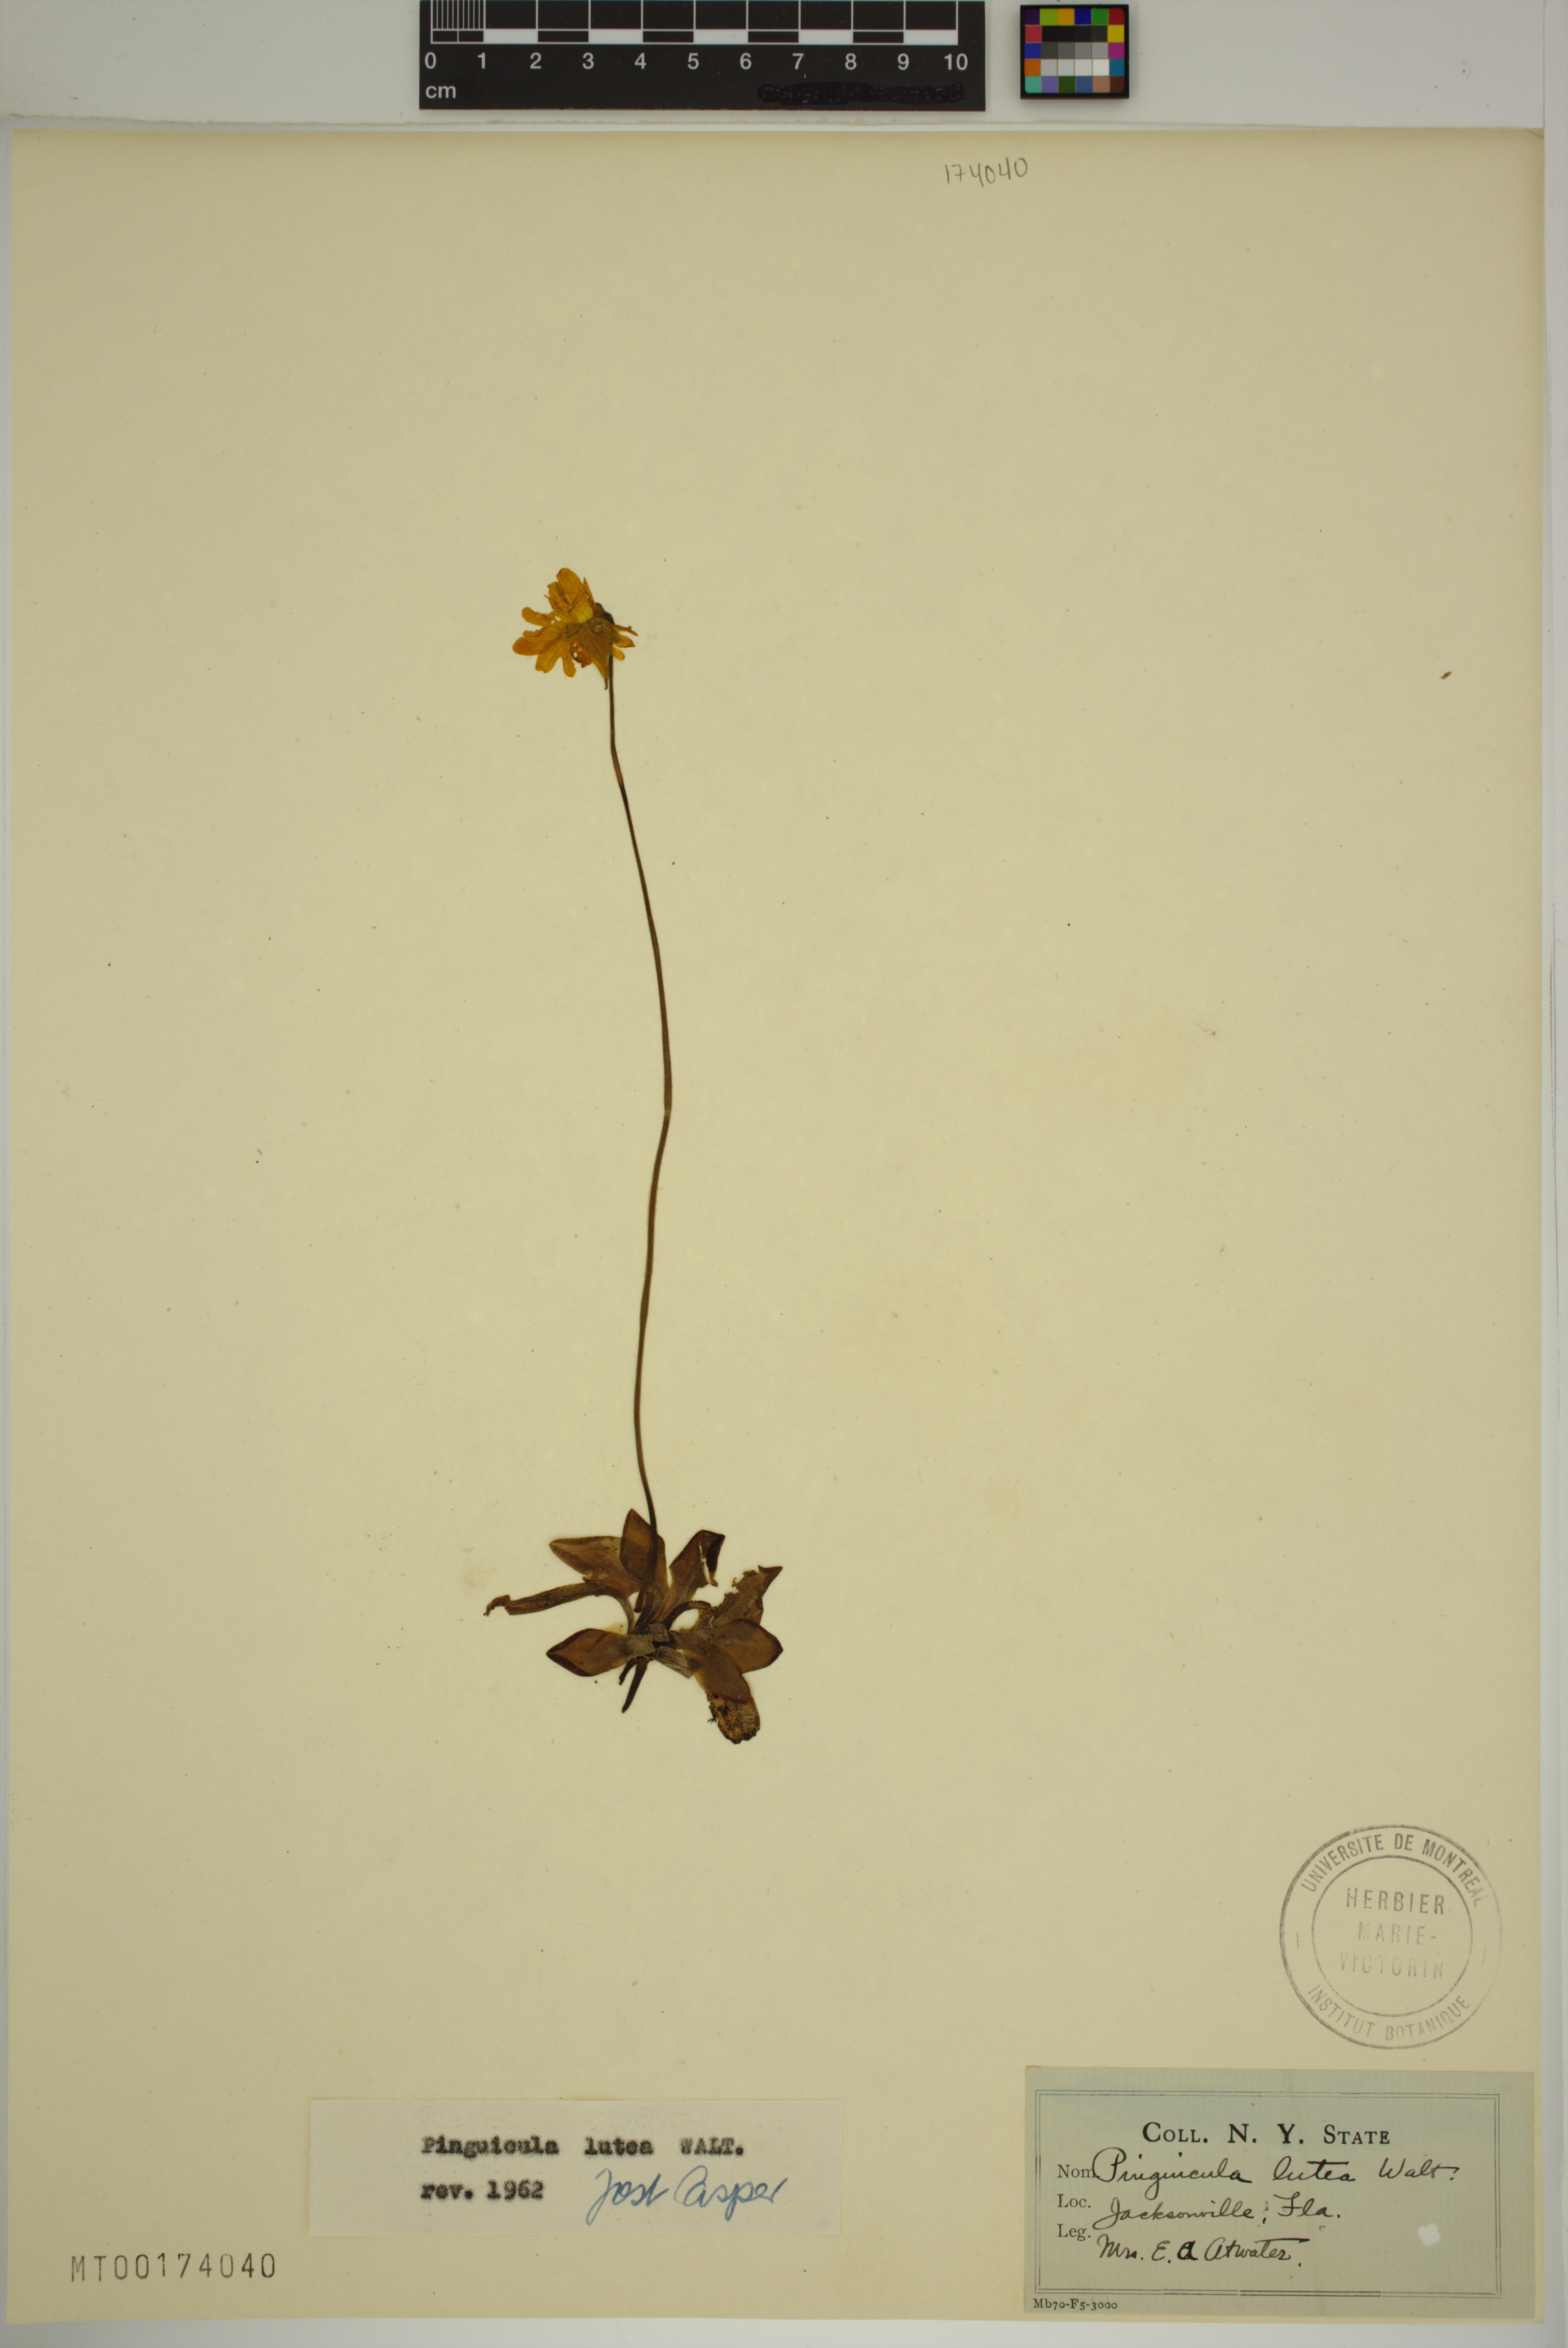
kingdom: Plantae
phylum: Tracheophyta
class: Magnoliopsida
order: Lamiales
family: Lentibulariaceae
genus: Pinguicula
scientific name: Pinguicula lutea
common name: Yellow butterwort
